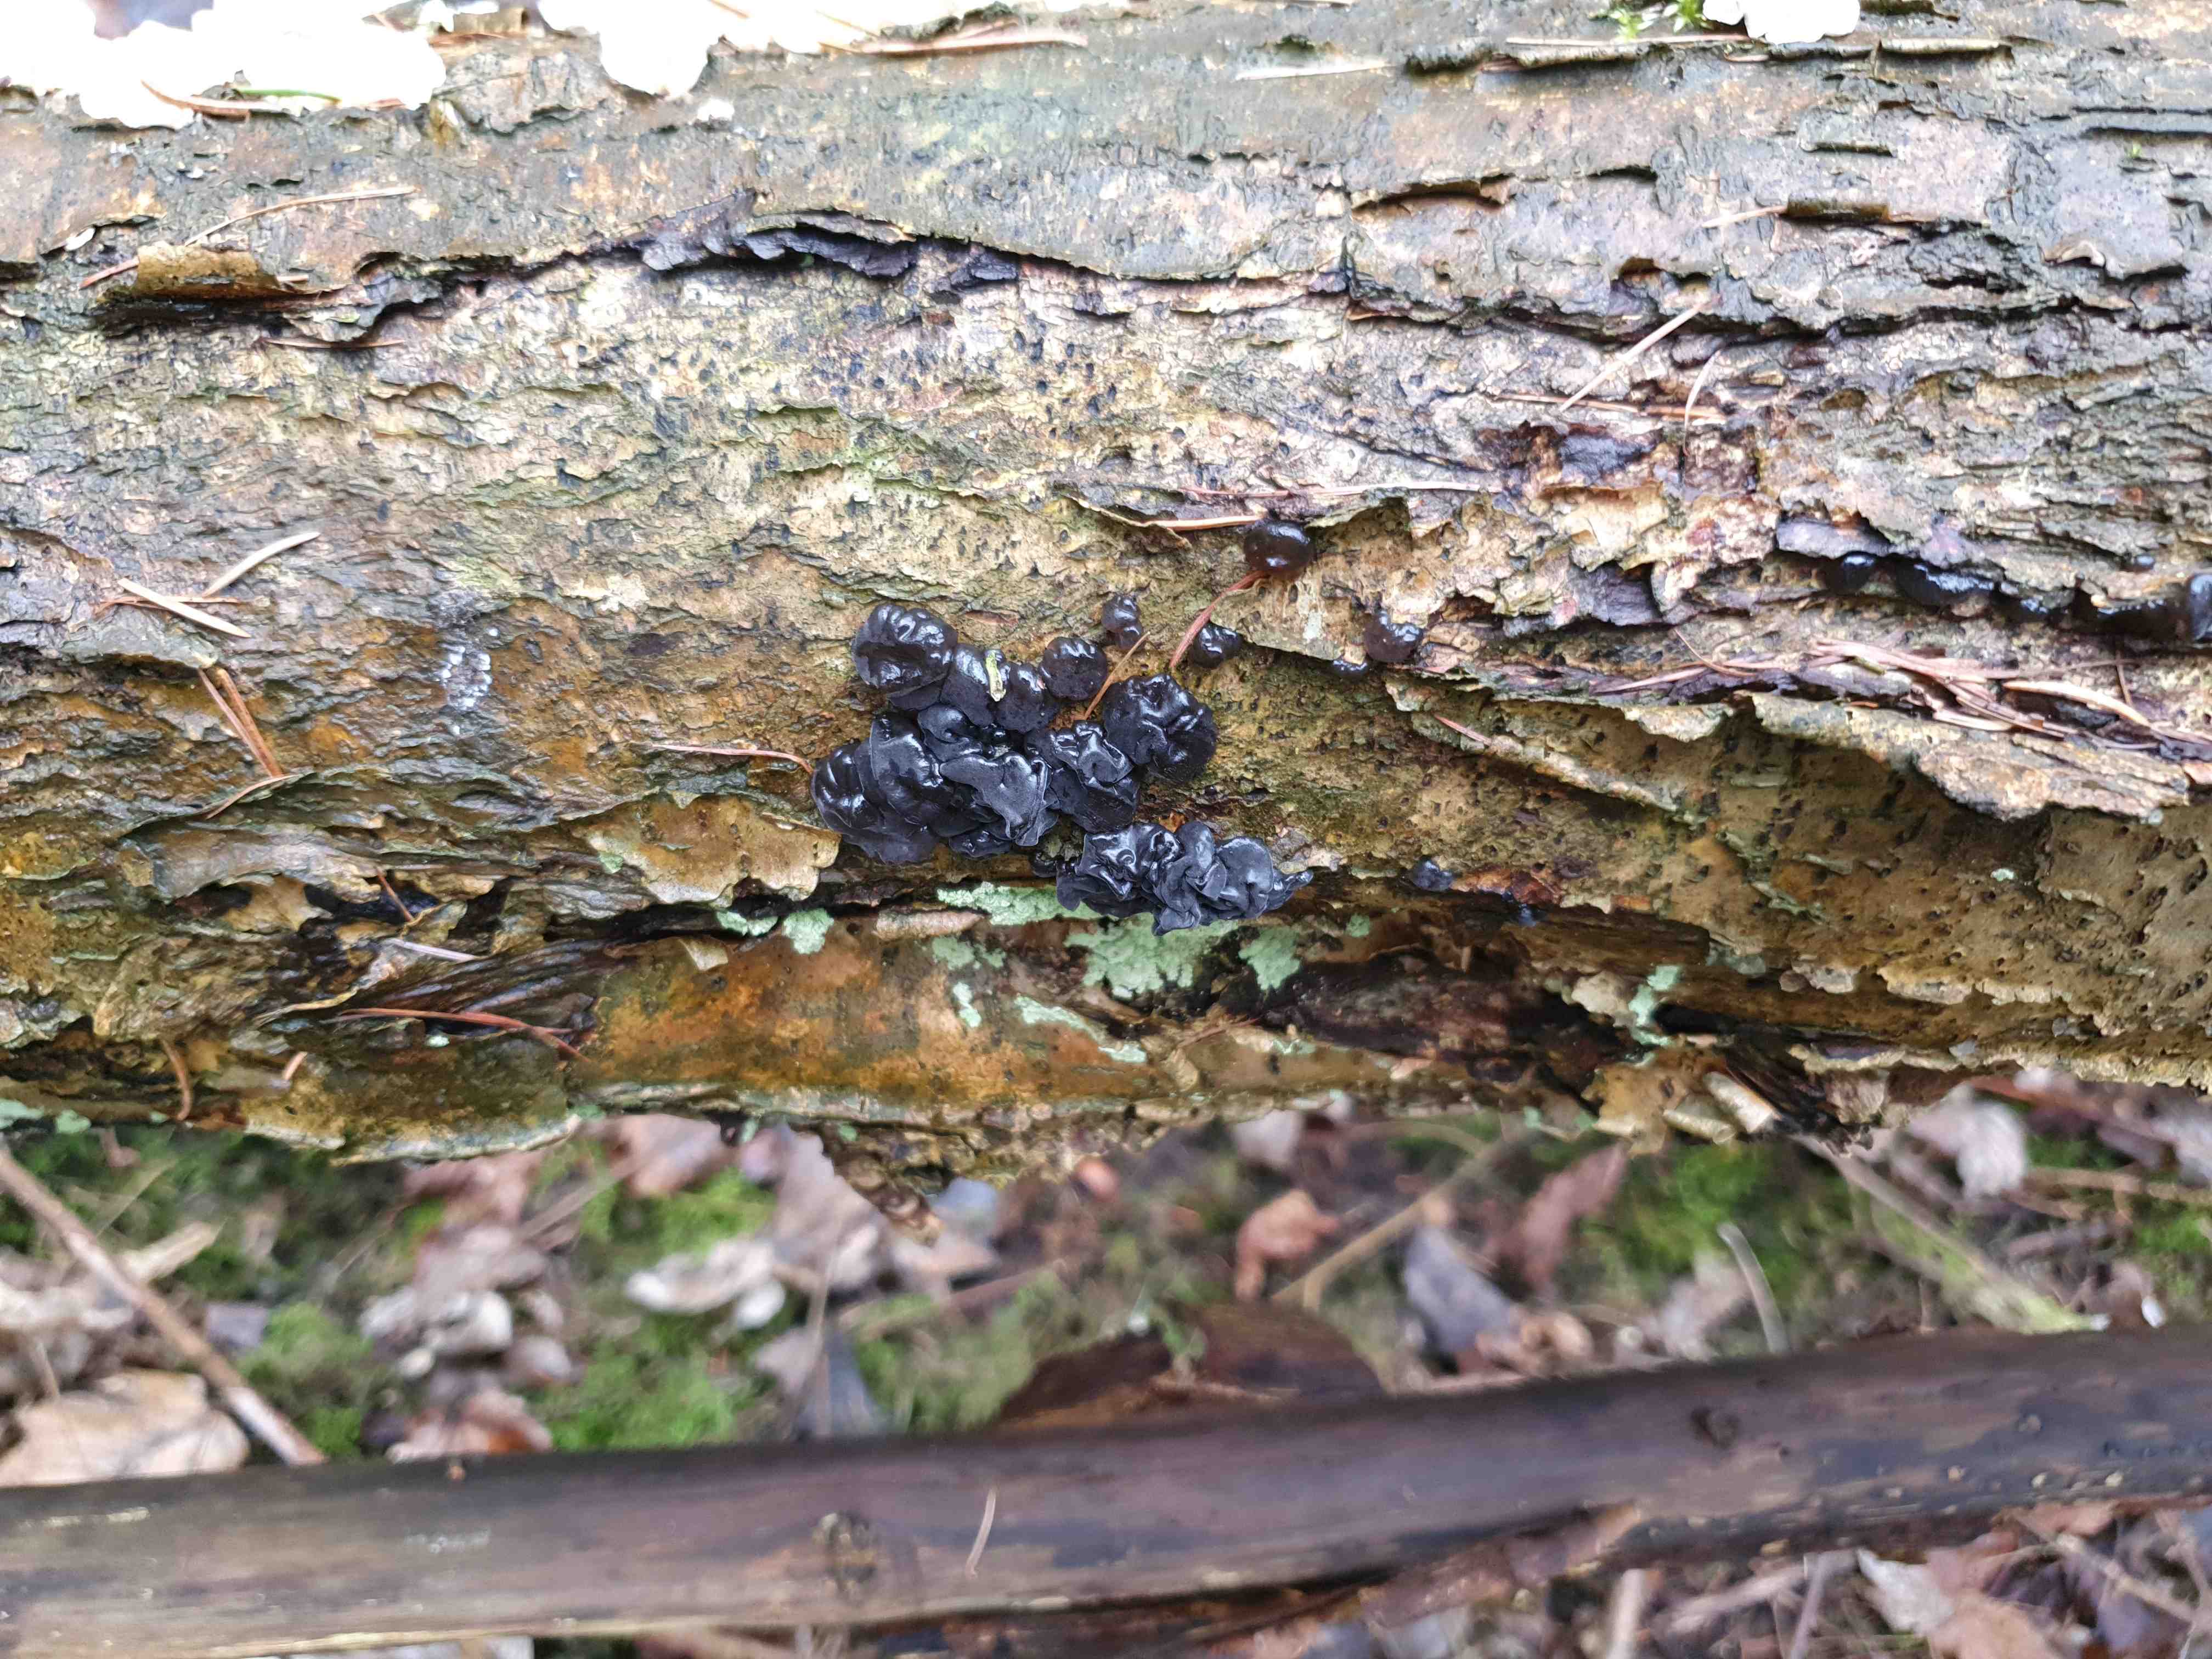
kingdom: Fungi
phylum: Basidiomycota
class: Agaricomycetes
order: Auriculariales
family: Auriculariaceae
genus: Exidia
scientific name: Exidia nigricans
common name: almindelig bævretop
